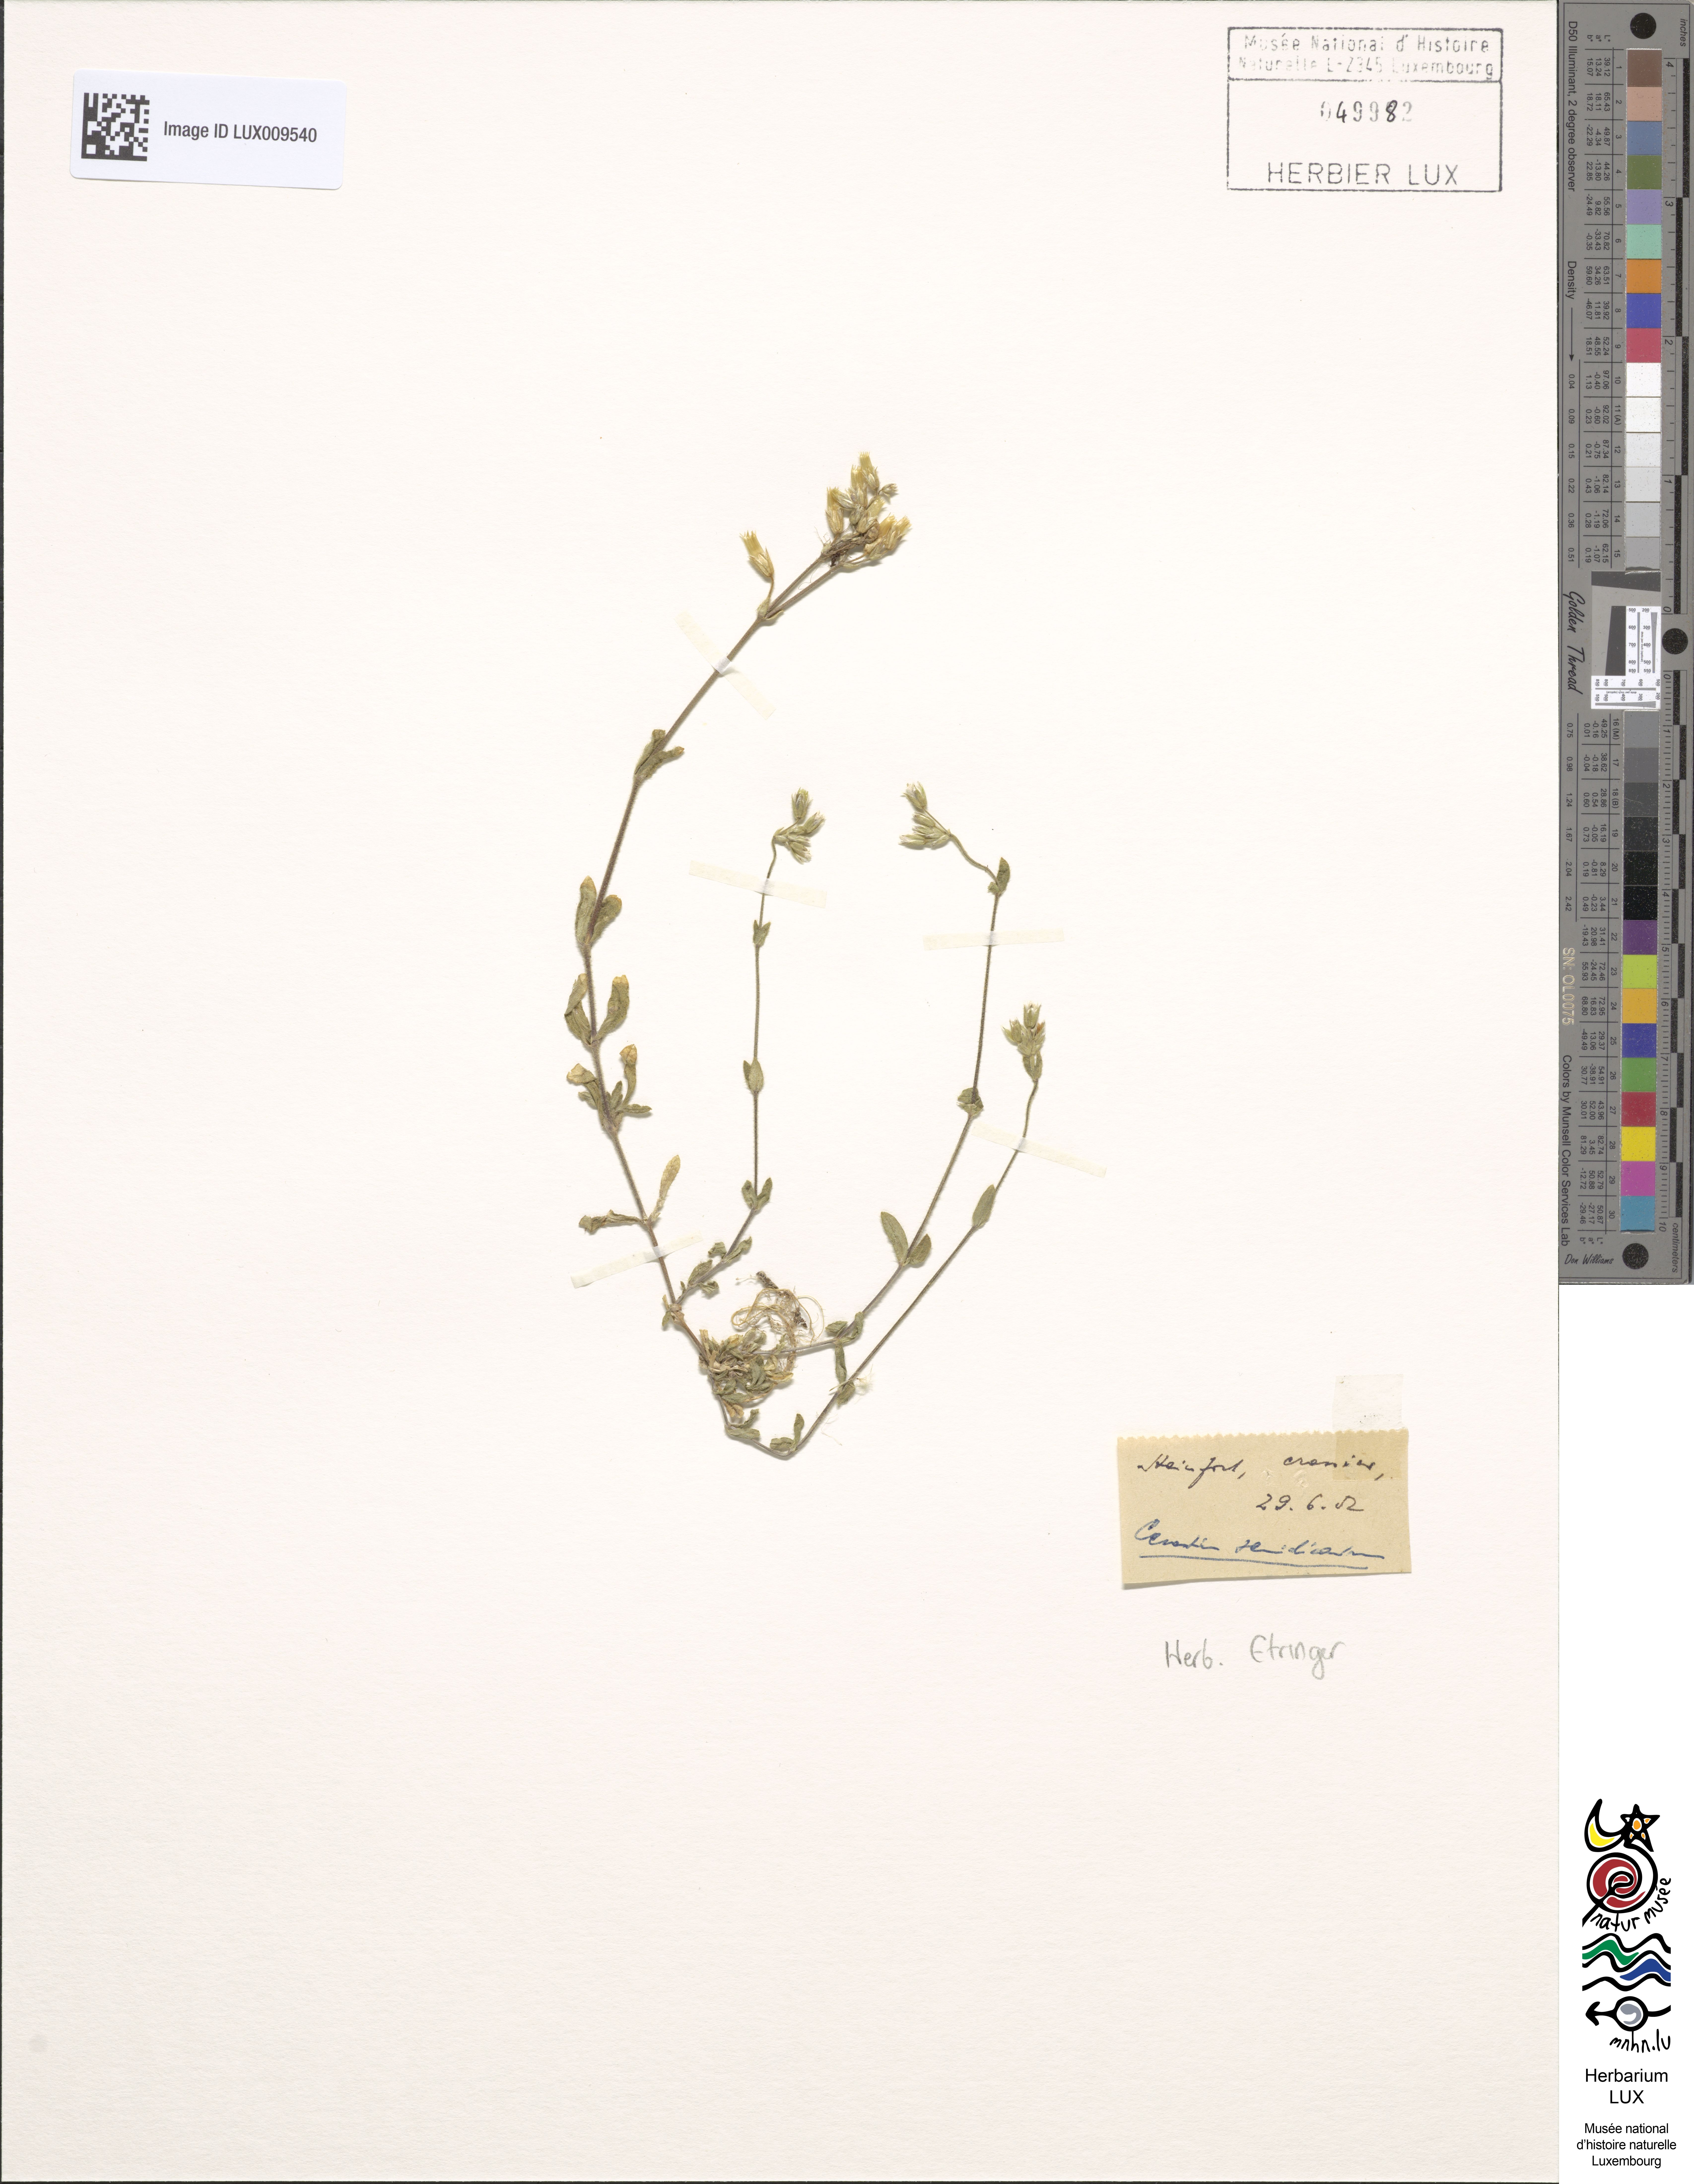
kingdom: Plantae
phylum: Tracheophyta
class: Magnoliopsida
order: Caryophyllales
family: Caryophyllaceae
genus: Cerastium
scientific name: Cerastium semidecandrum
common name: Little mouse-ear
